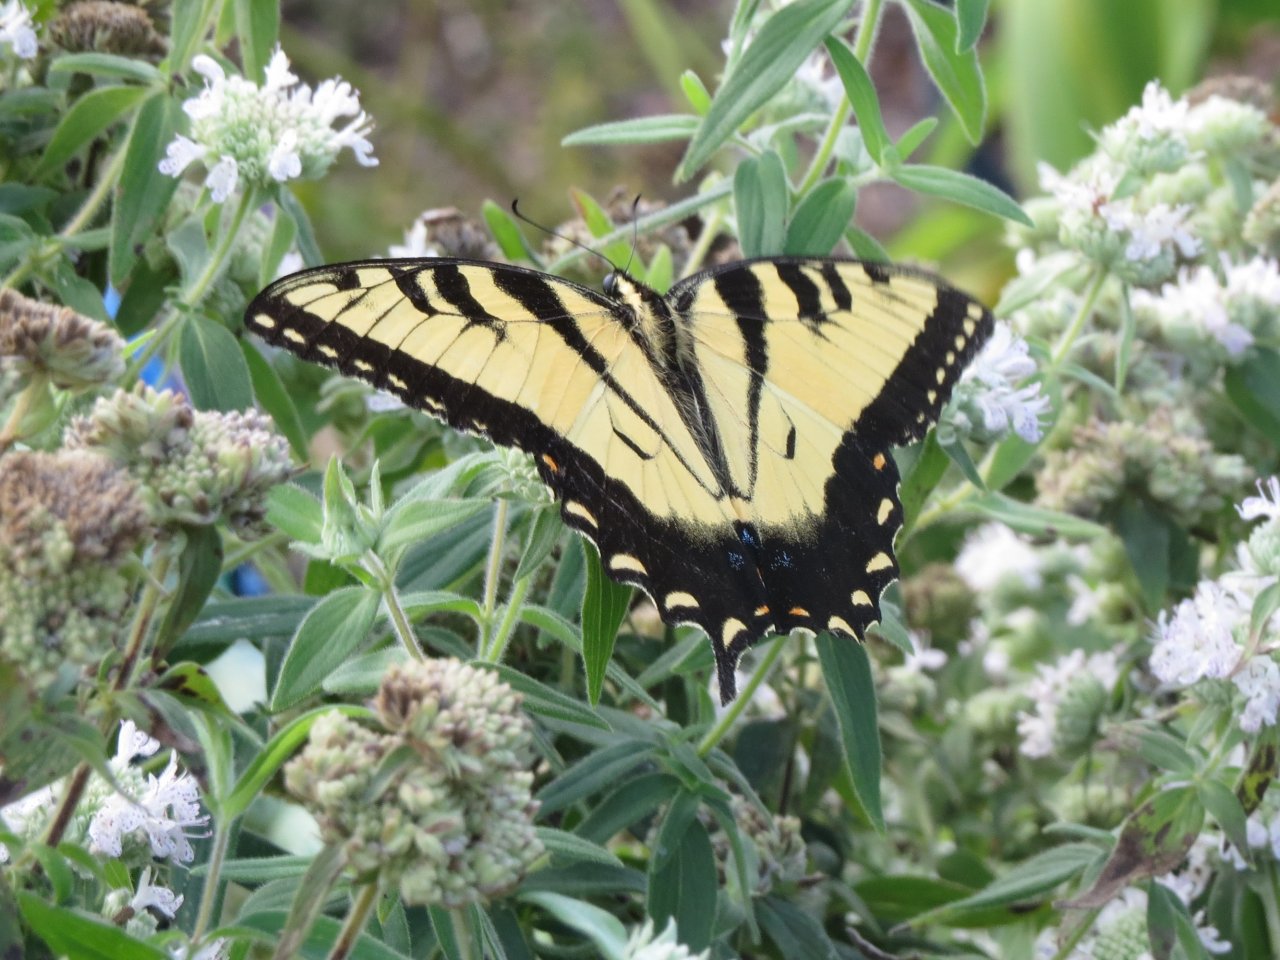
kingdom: Animalia
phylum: Arthropoda
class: Insecta
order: Lepidoptera
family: Papilionidae
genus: Pterourus
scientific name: Pterourus glaucus
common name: Eastern Tiger Swallowtail
